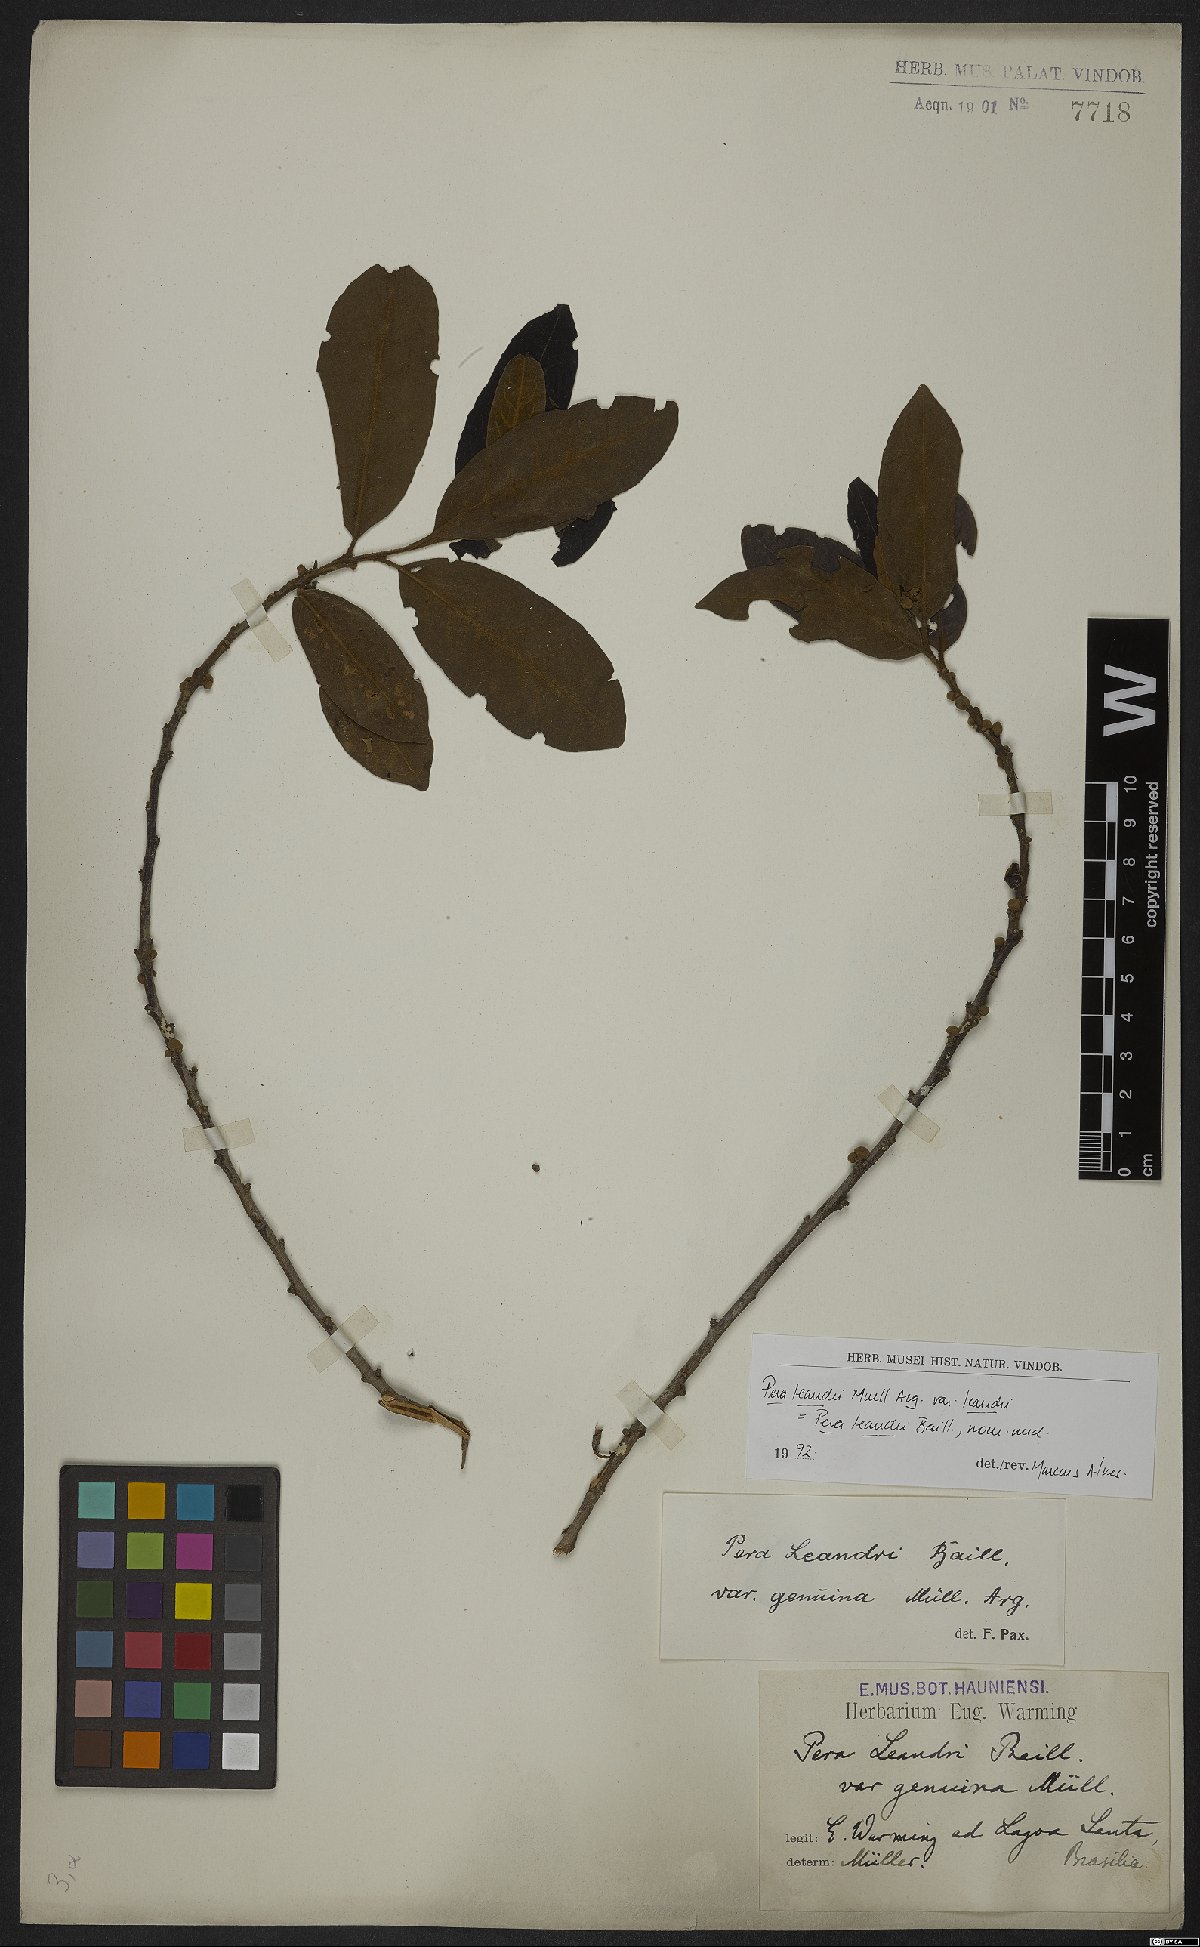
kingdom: Plantae
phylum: Tracheophyta
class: Magnoliopsida
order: Malpighiales
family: Peraceae
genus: Pera
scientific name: Pera heteranthera
